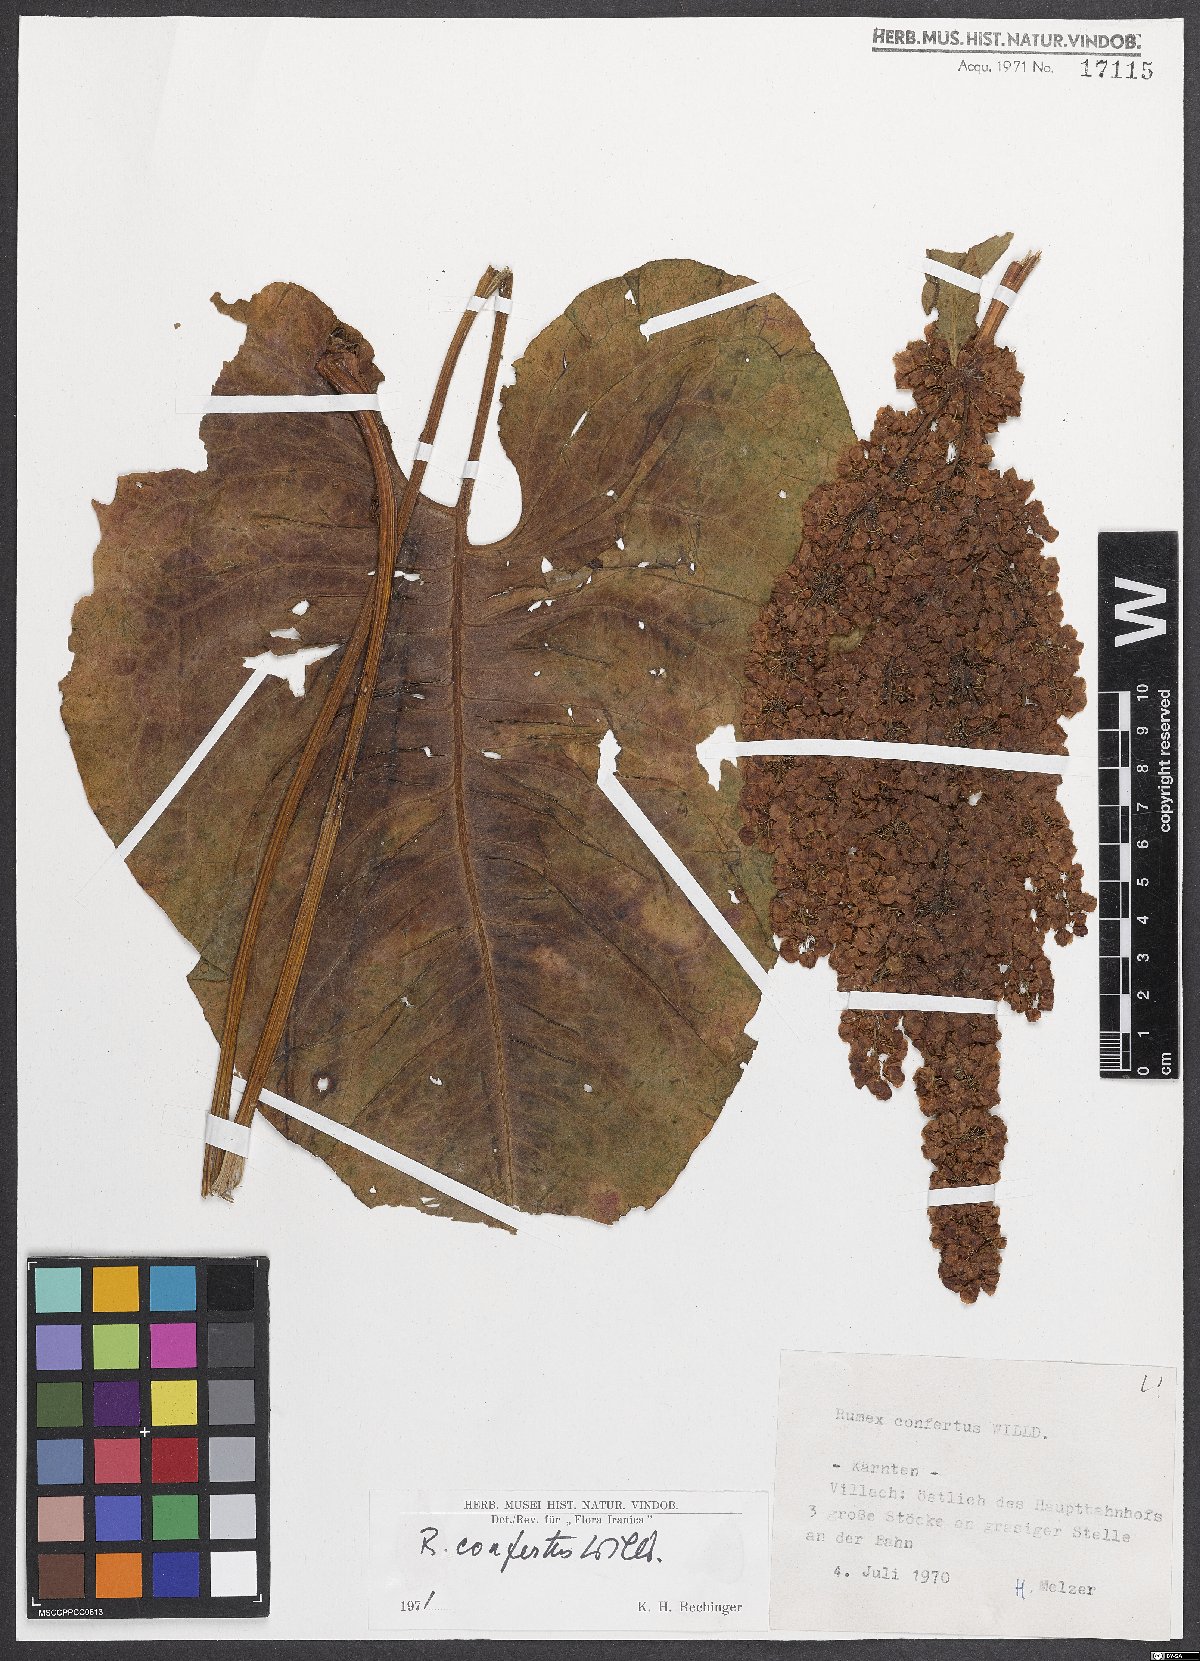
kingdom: Plantae
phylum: Tracheophyta
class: Magnoliopsida
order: Caryophyllales
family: Polygonaceae
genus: Rumex
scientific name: Rumex confertus
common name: Russian dock
